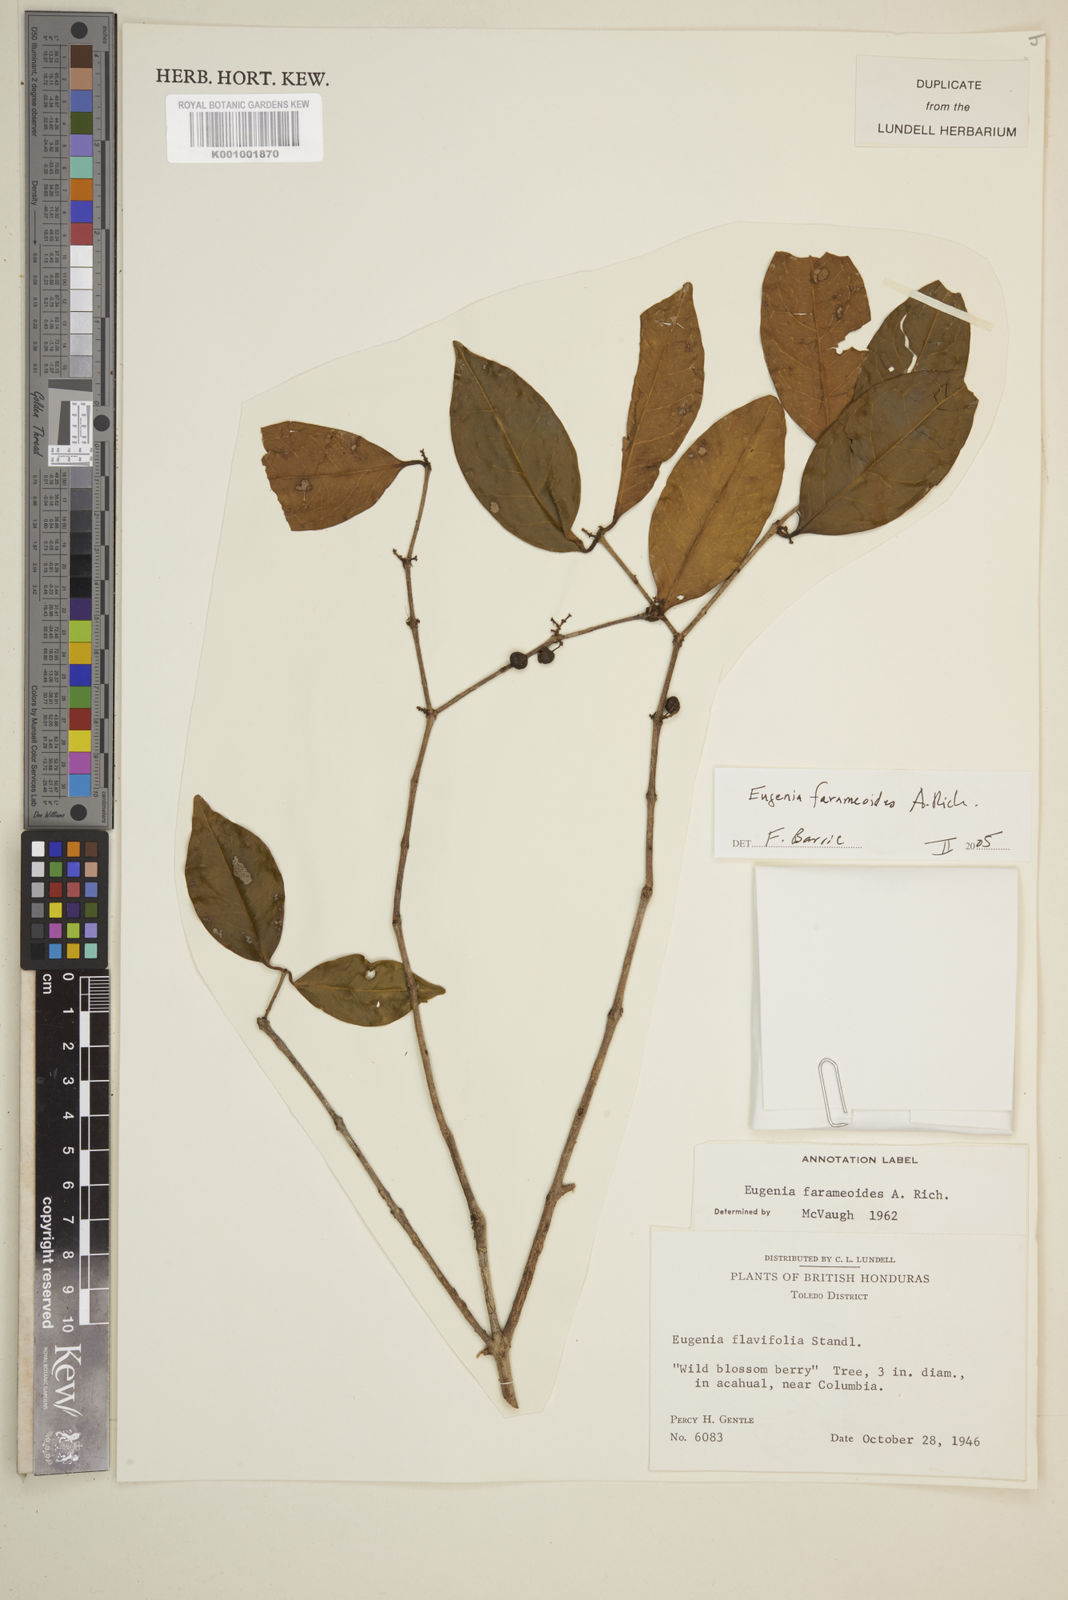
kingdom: Plantae
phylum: Tracheophyta
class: Magnoliopsida
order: Myrtales
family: Myrtaceae
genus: Eugenia
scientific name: Eugenia farameoides
